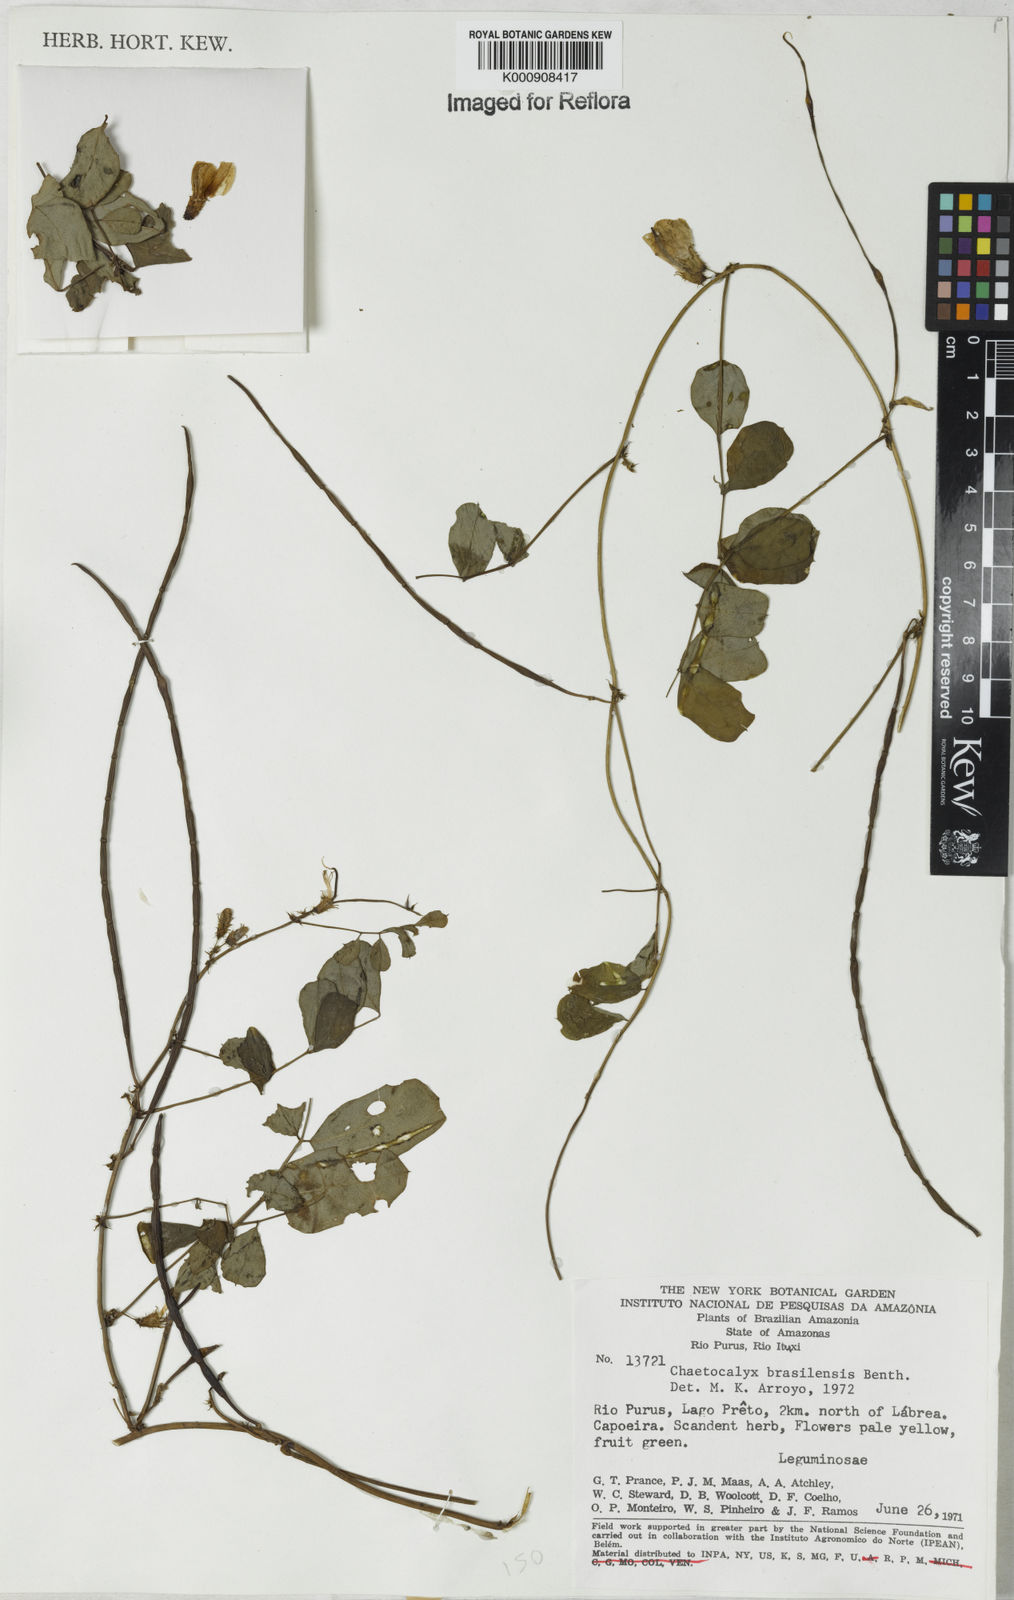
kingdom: Plantae
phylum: Tracheophyta
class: Magnoliopsida
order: Fabales
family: Fabaceae
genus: Nissolia
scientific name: Nissolia brasiliensis
